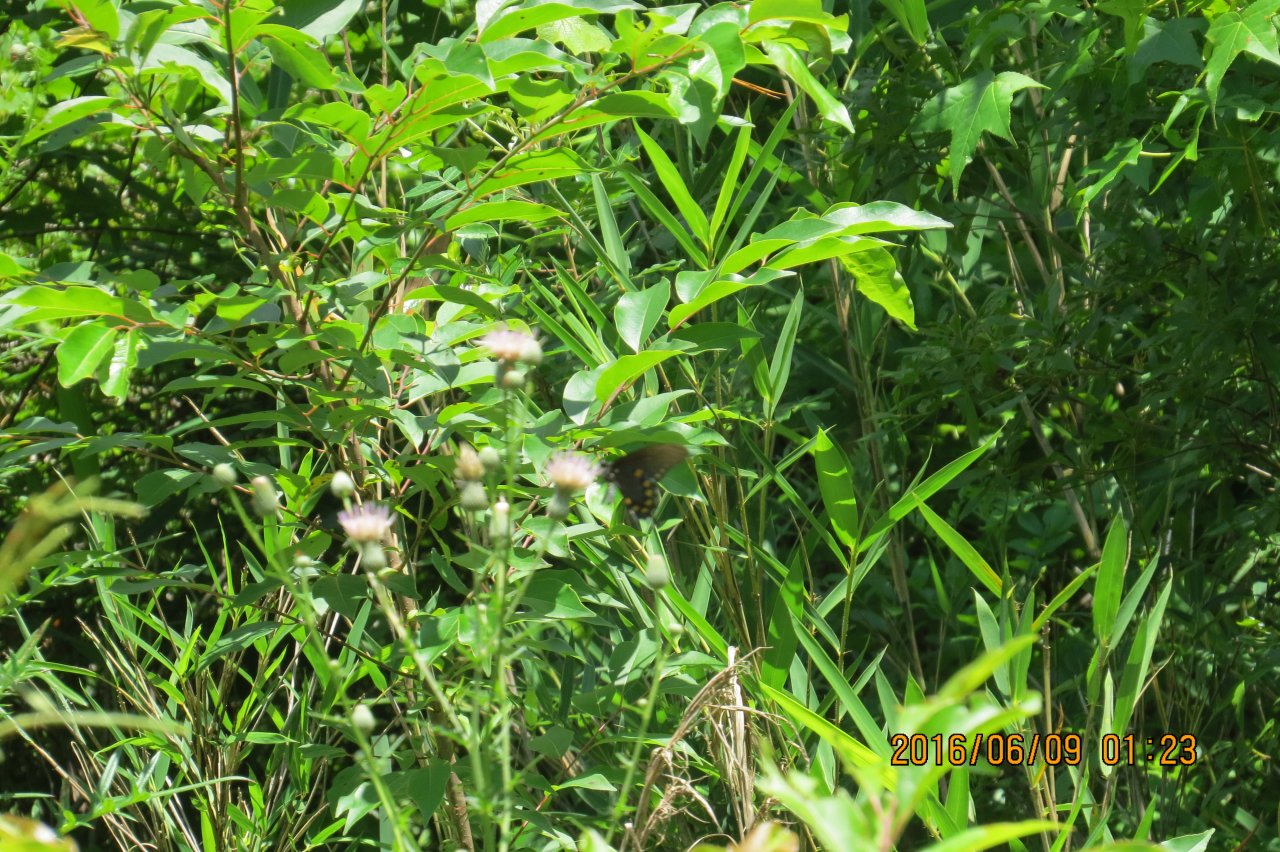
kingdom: Animalia
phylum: Arthropoda
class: Insecta
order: Lepidoptera
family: Papilionidae
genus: Battus
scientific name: Battus philenor
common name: Pipevine Swallowtail
